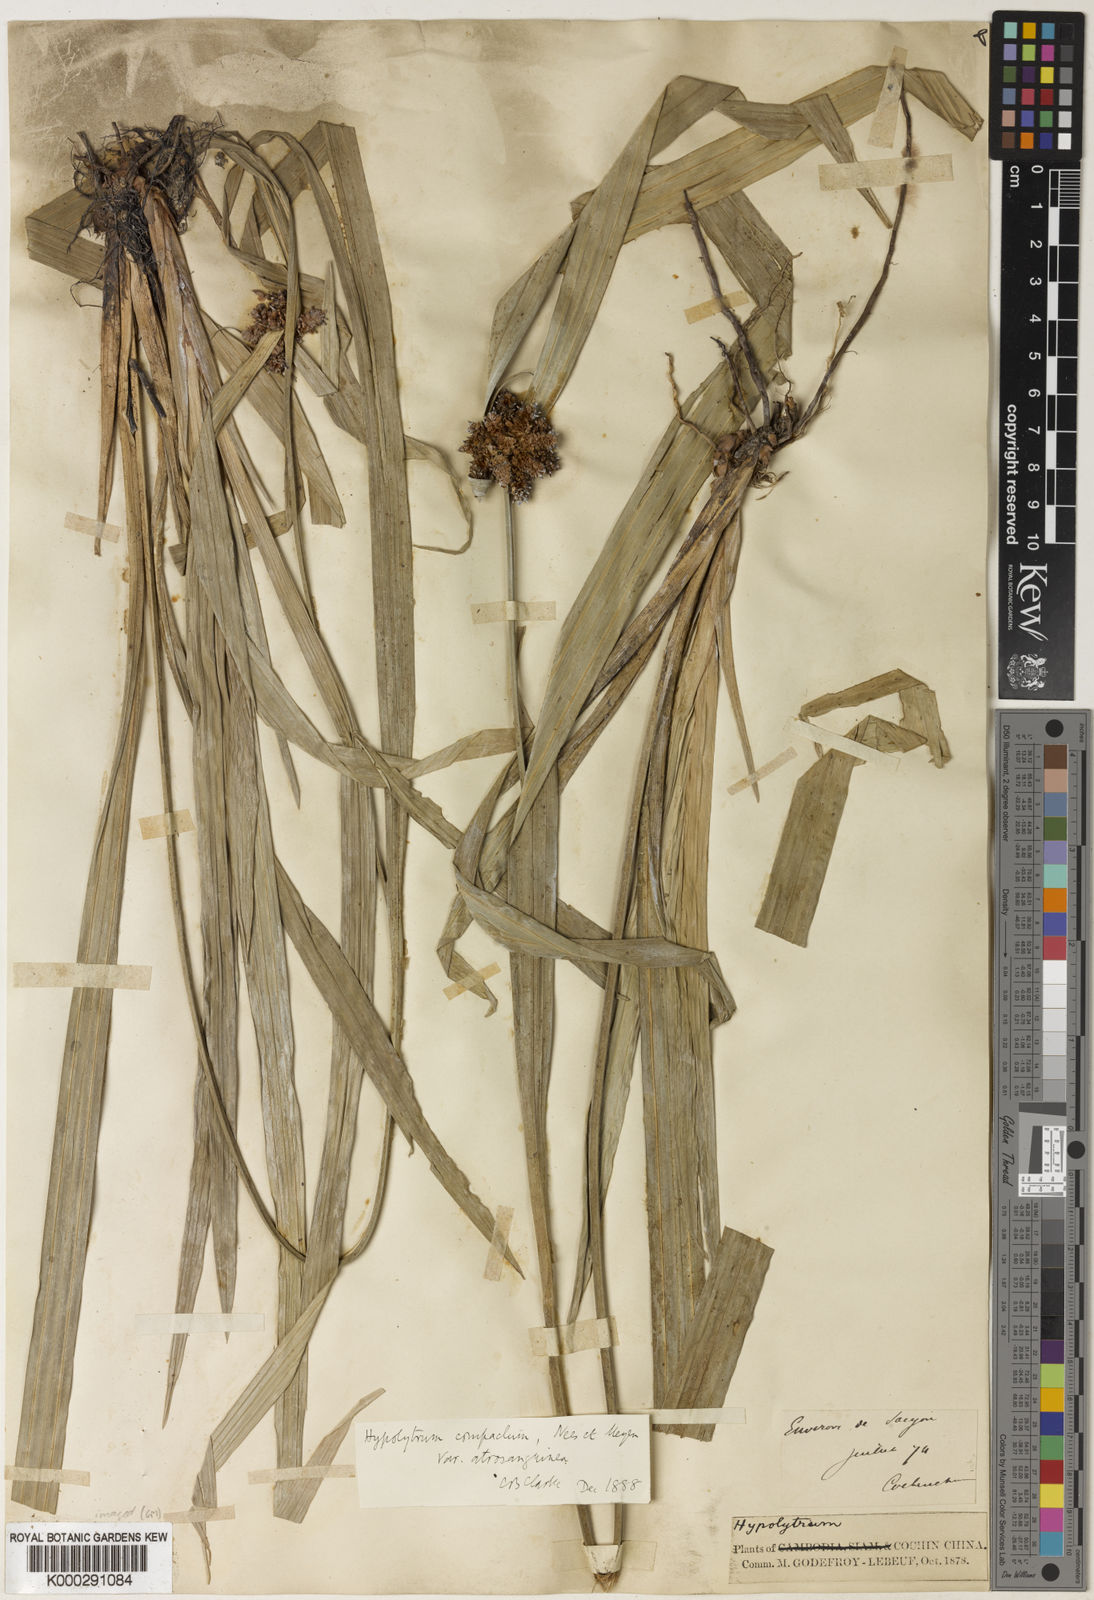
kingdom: Plantae
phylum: Tracheophyta
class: Liliopsida
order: Poales
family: Cyperaceae
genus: Hypolytrum
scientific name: Hypolytrum
